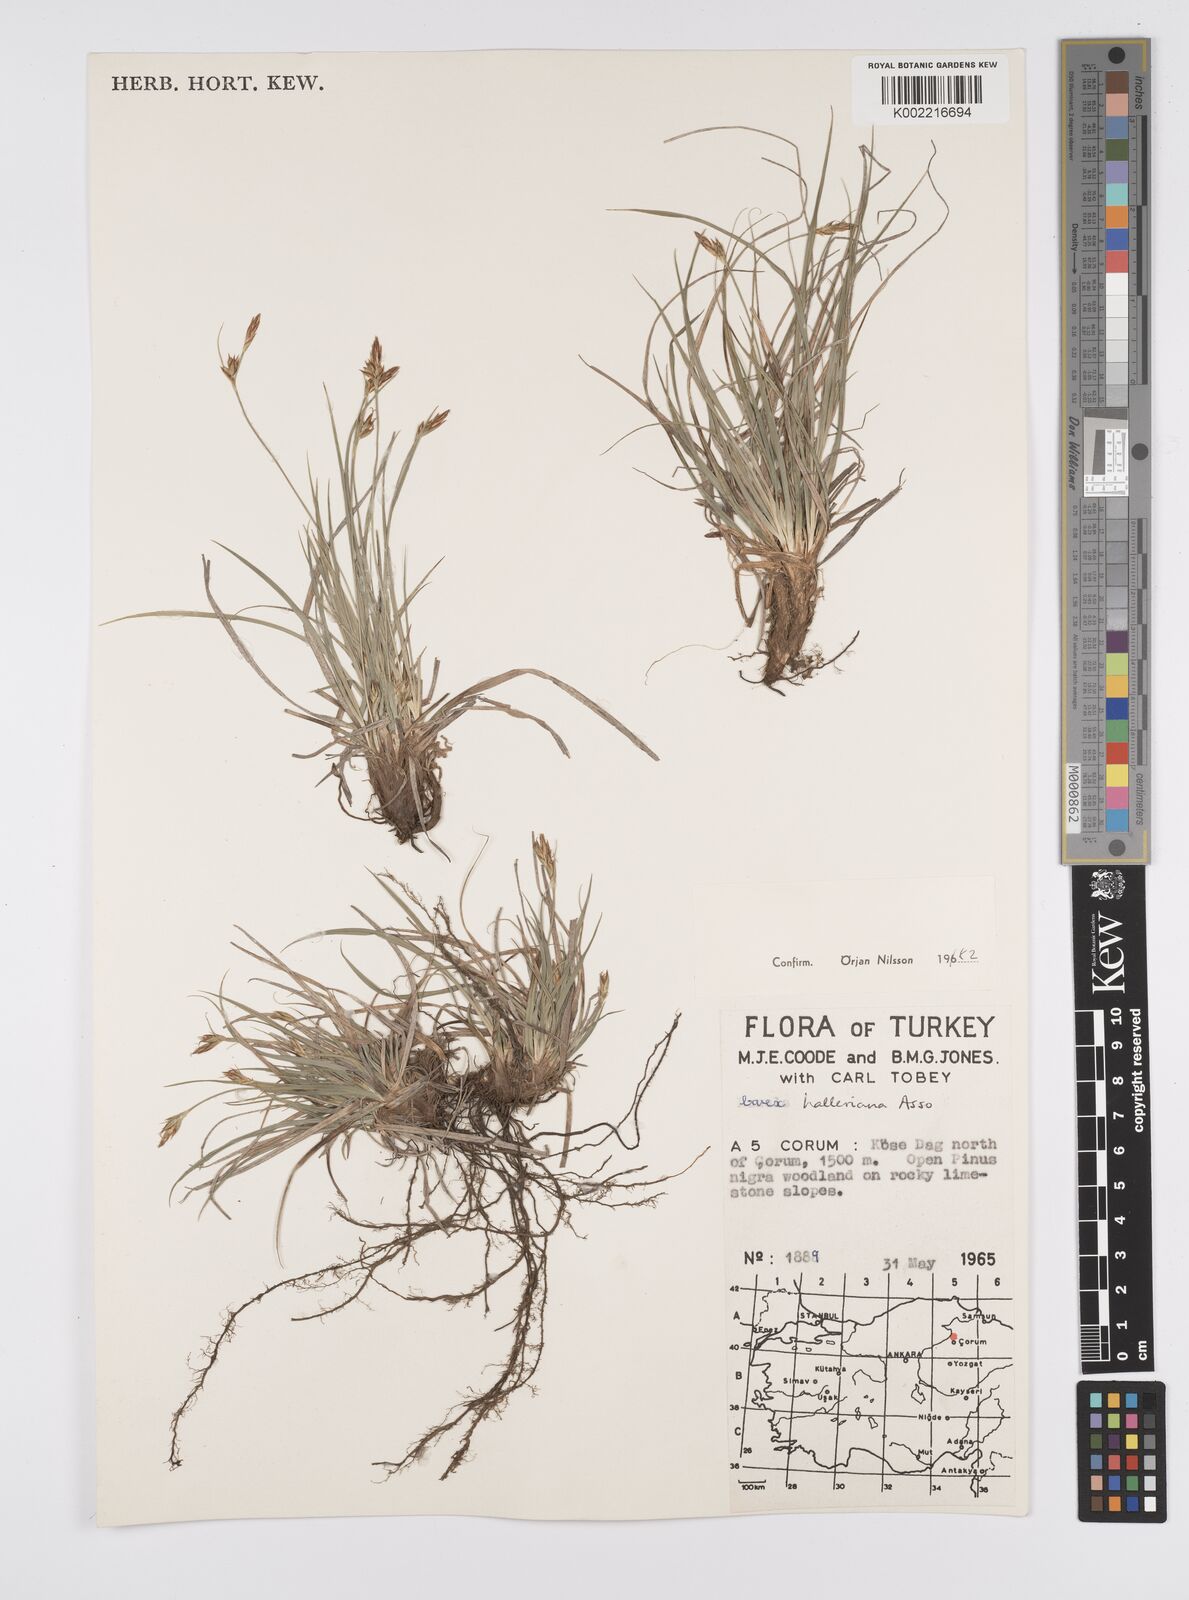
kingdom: Plantae
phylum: Tracheophyta
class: Liliopsida
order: Poales
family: Cyperaceae
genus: Carex
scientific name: Carex halleriana
